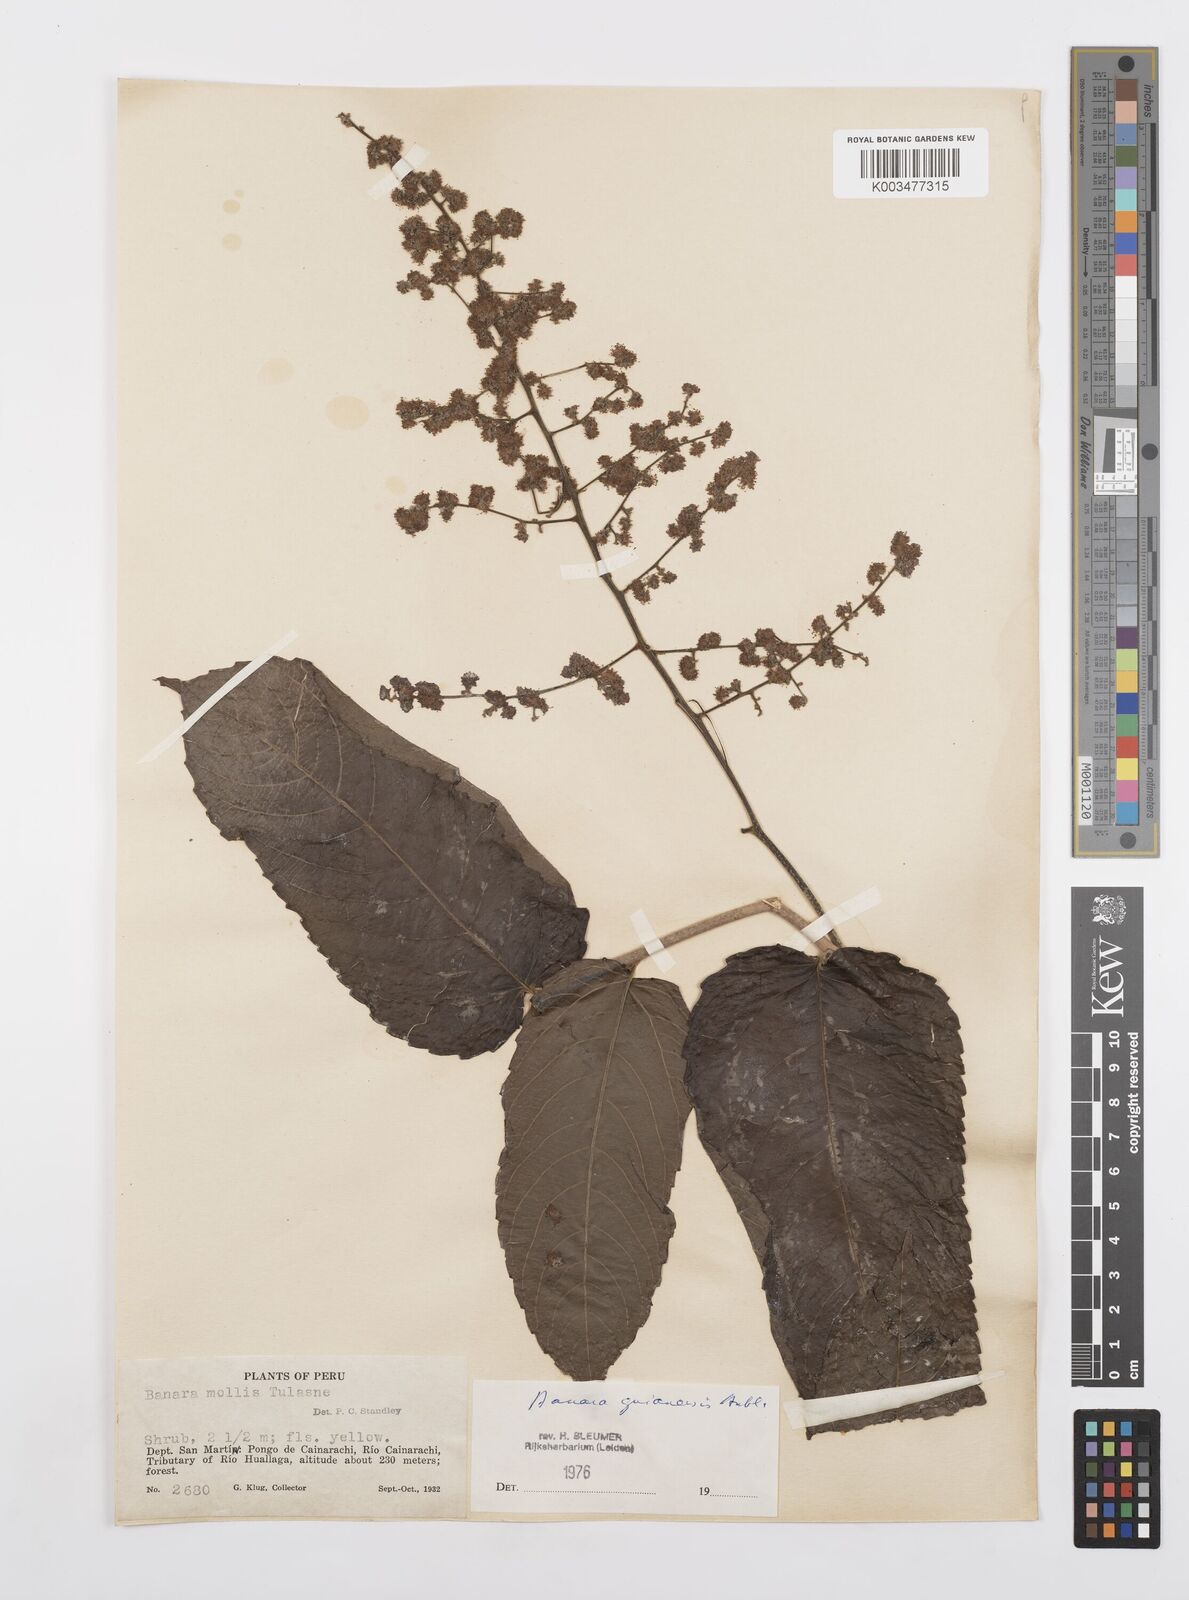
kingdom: Plantae
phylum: Tracheophyta
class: Magnoliopsida
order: Malpighiales
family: Salicaceae
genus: Banara
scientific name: Banara guianensis
